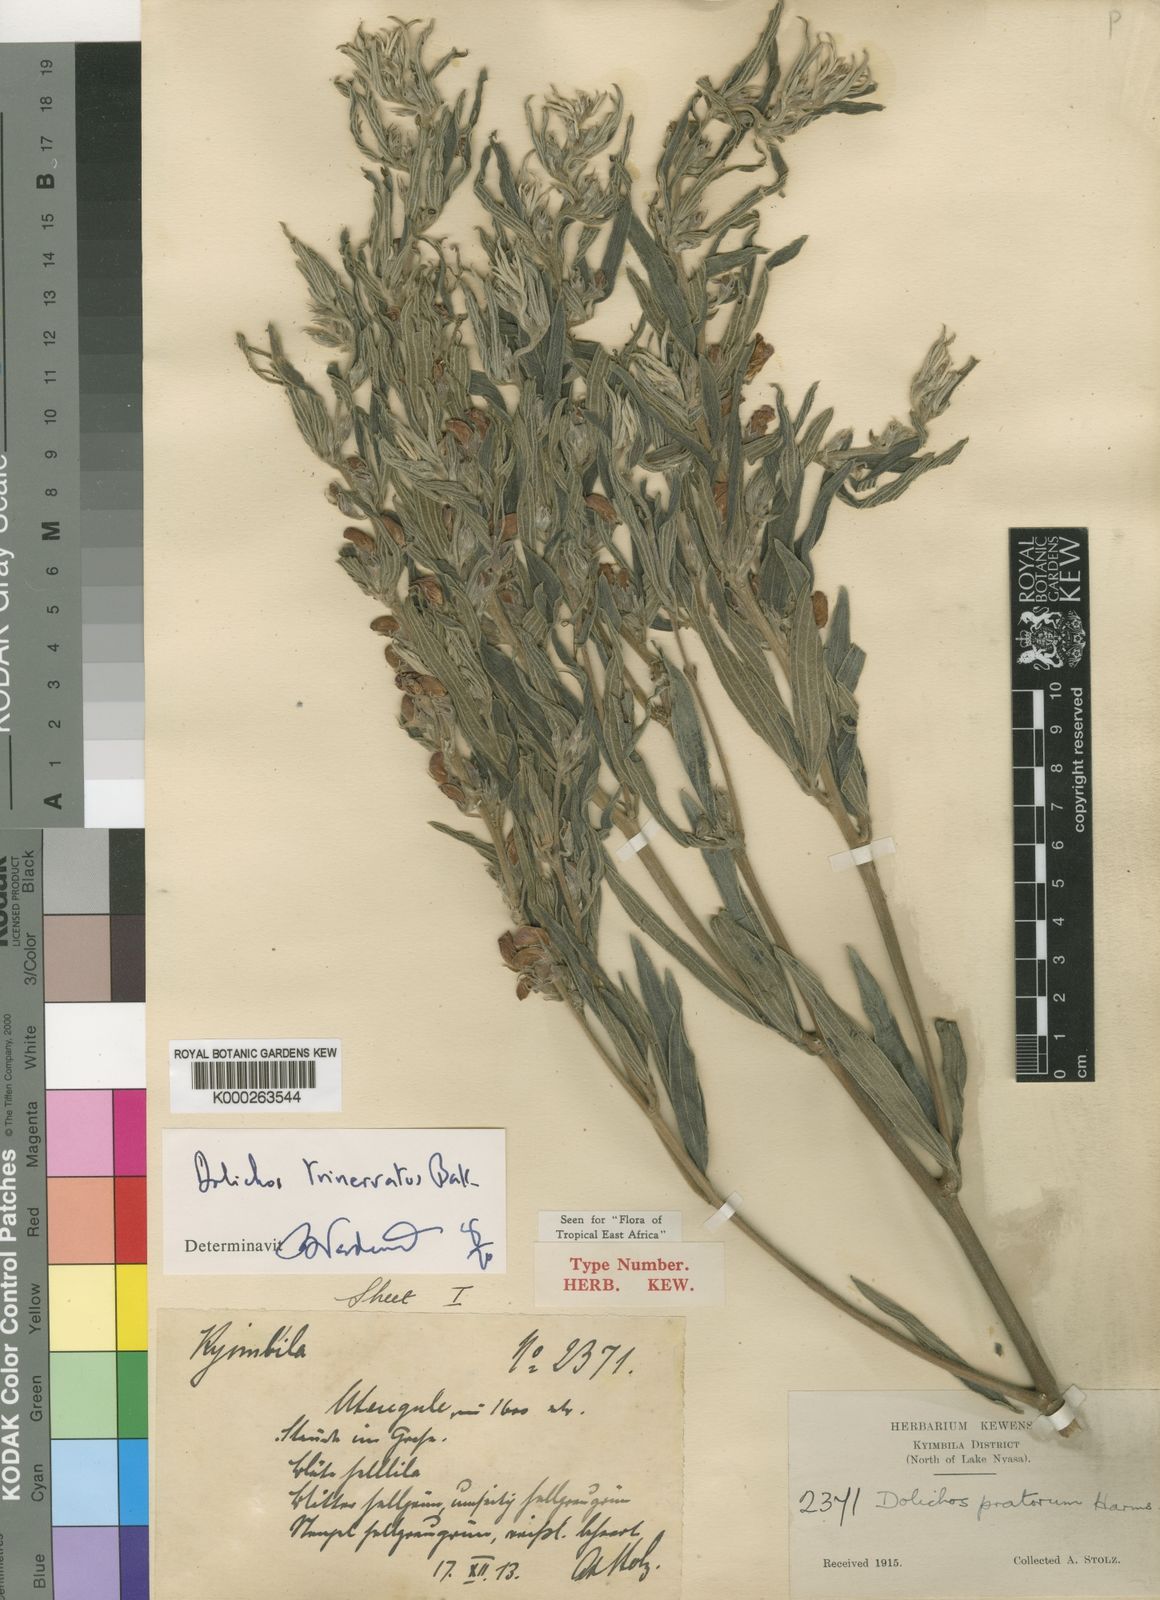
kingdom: Plantae
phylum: Tracheophyta
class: Magnoliopsida
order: Fabales
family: Fabaceae
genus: Dolichos
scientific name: Dolichos trinervatus
